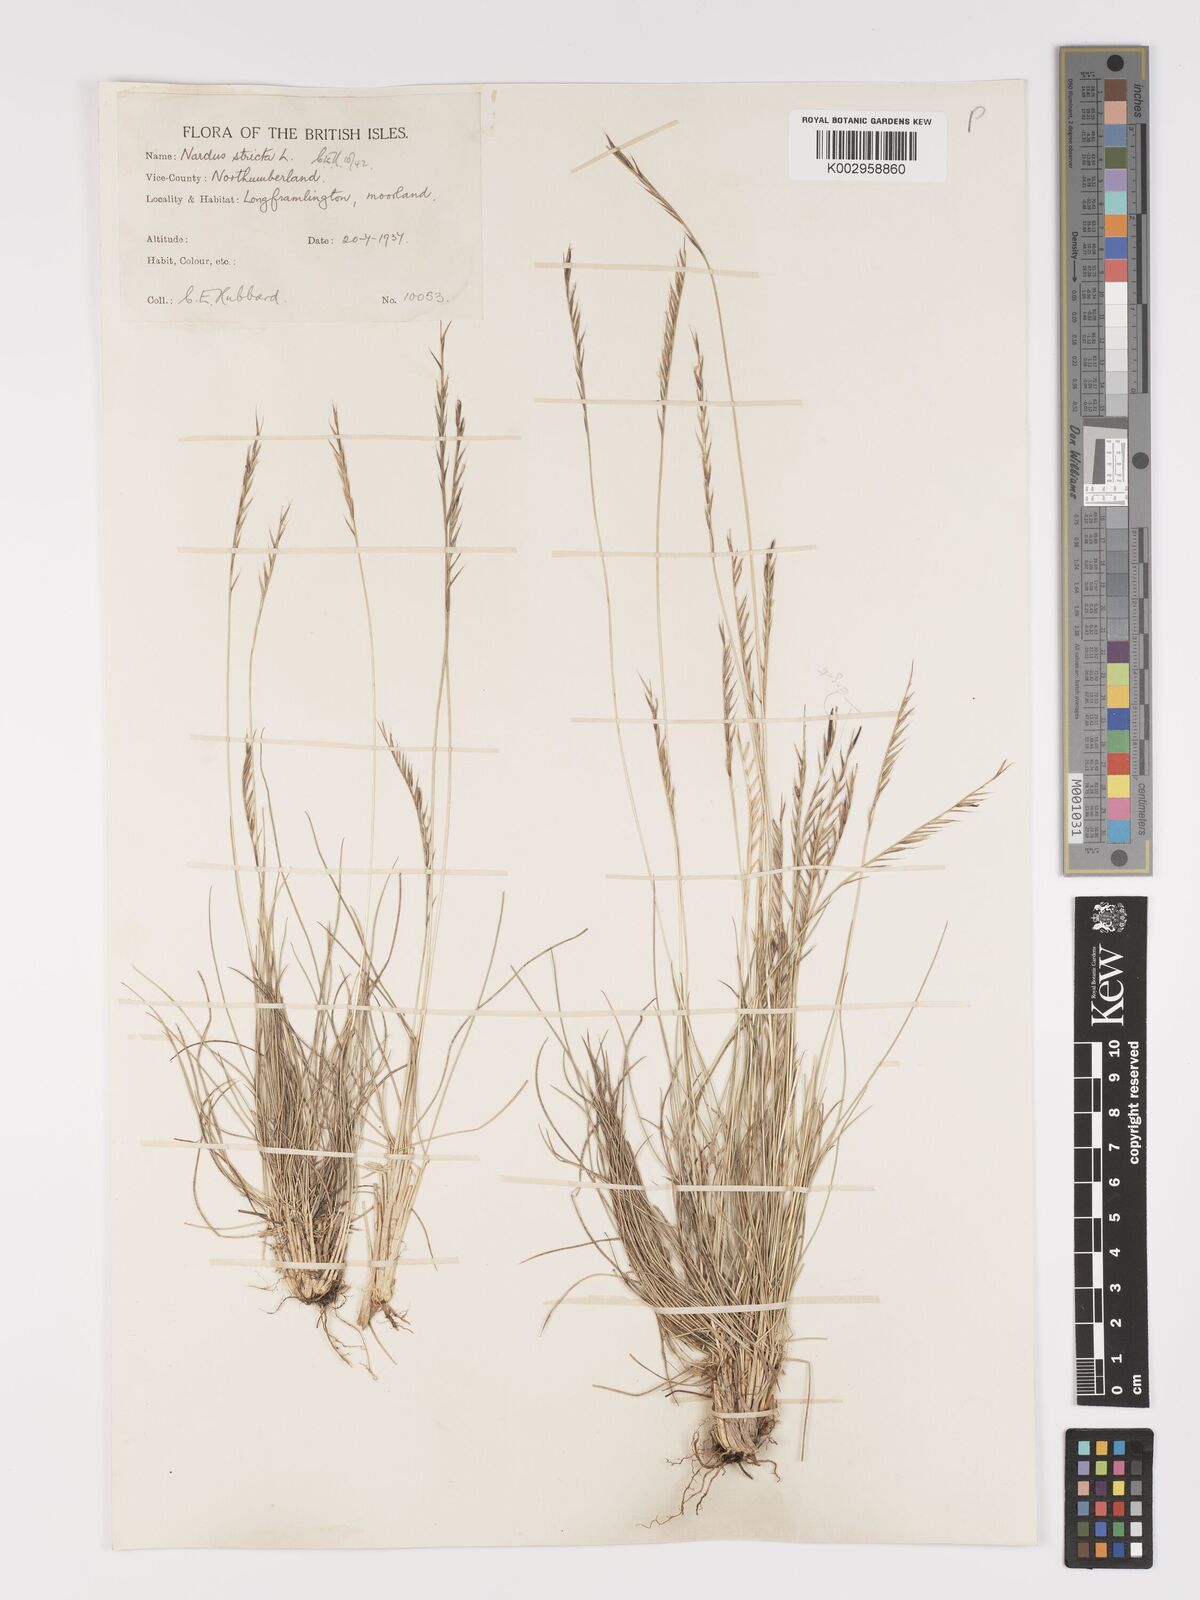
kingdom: Plantae
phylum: Tracheophyta
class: Liliopsida
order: Poales
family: Poaceae
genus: Nardus
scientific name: Nardus stricta
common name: Mat-grass
